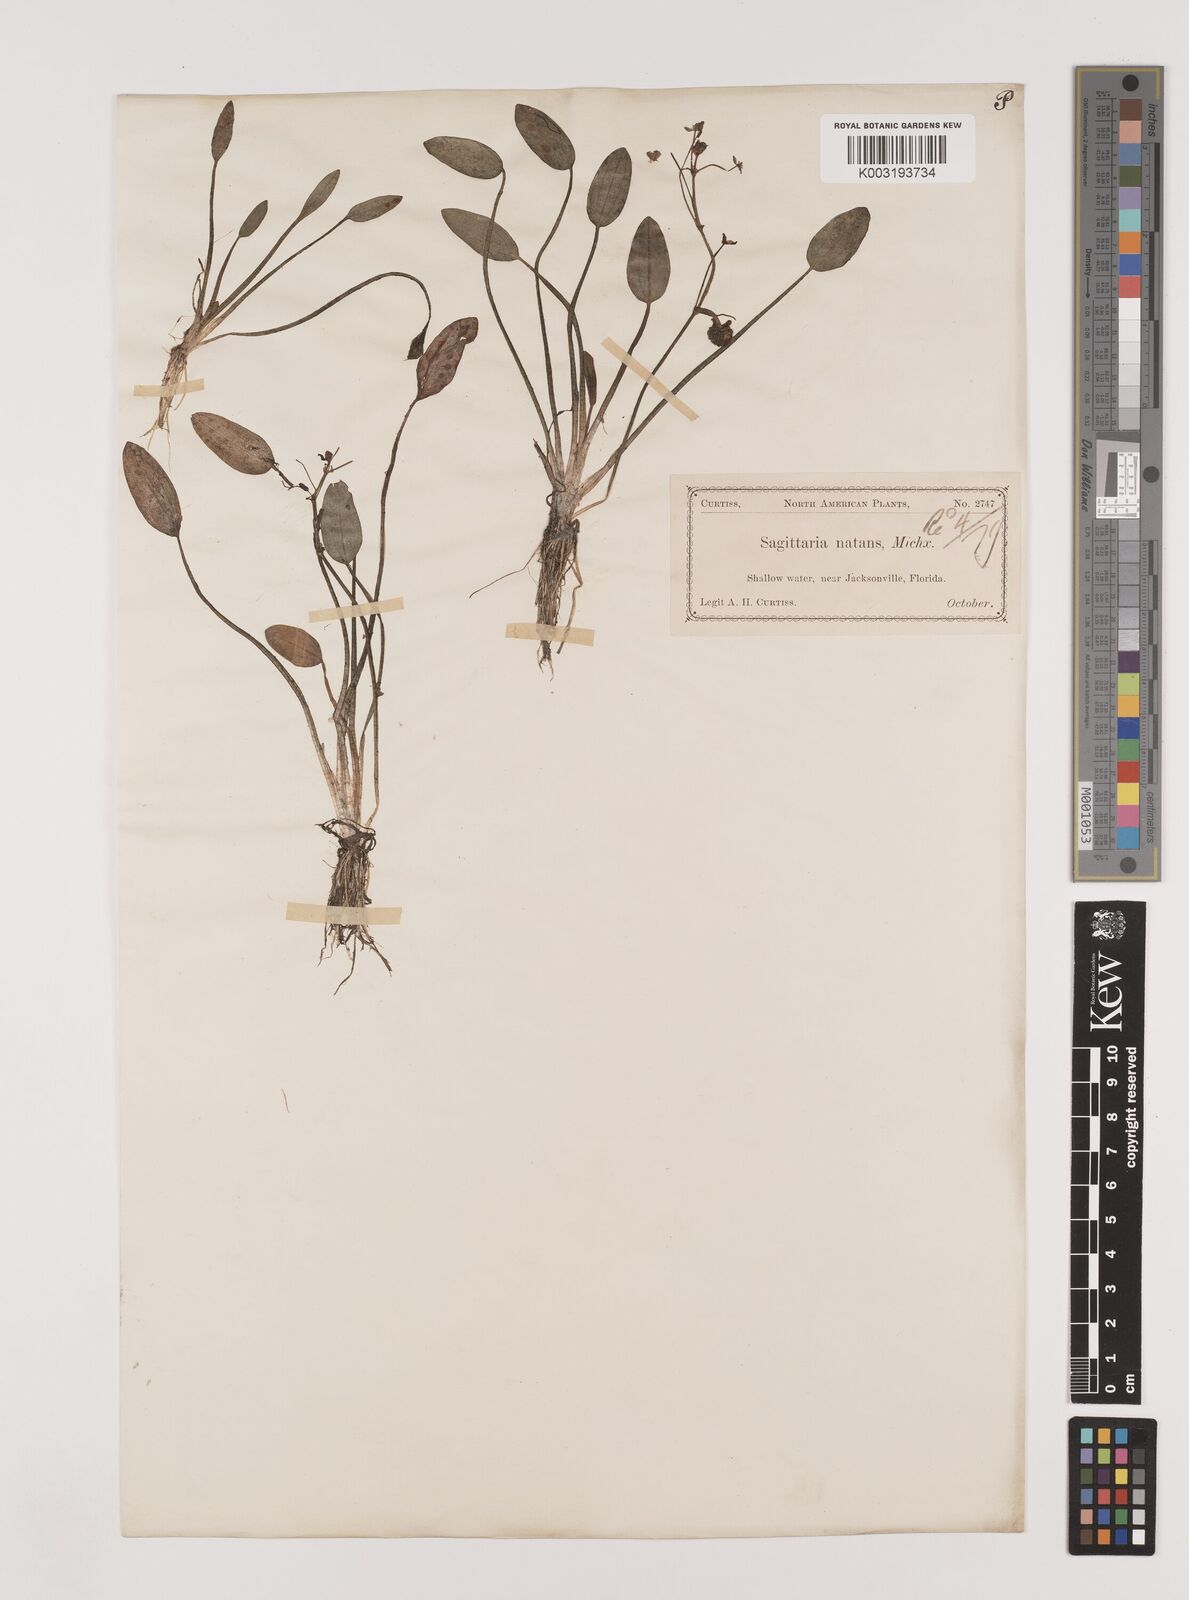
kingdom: Plantae
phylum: Tracheophyta
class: Liliopsida
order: Alismatales
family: Alismataceae
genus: Sagittaria
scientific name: Sagittaria subulata
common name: Narrow-leaved arrowhead
